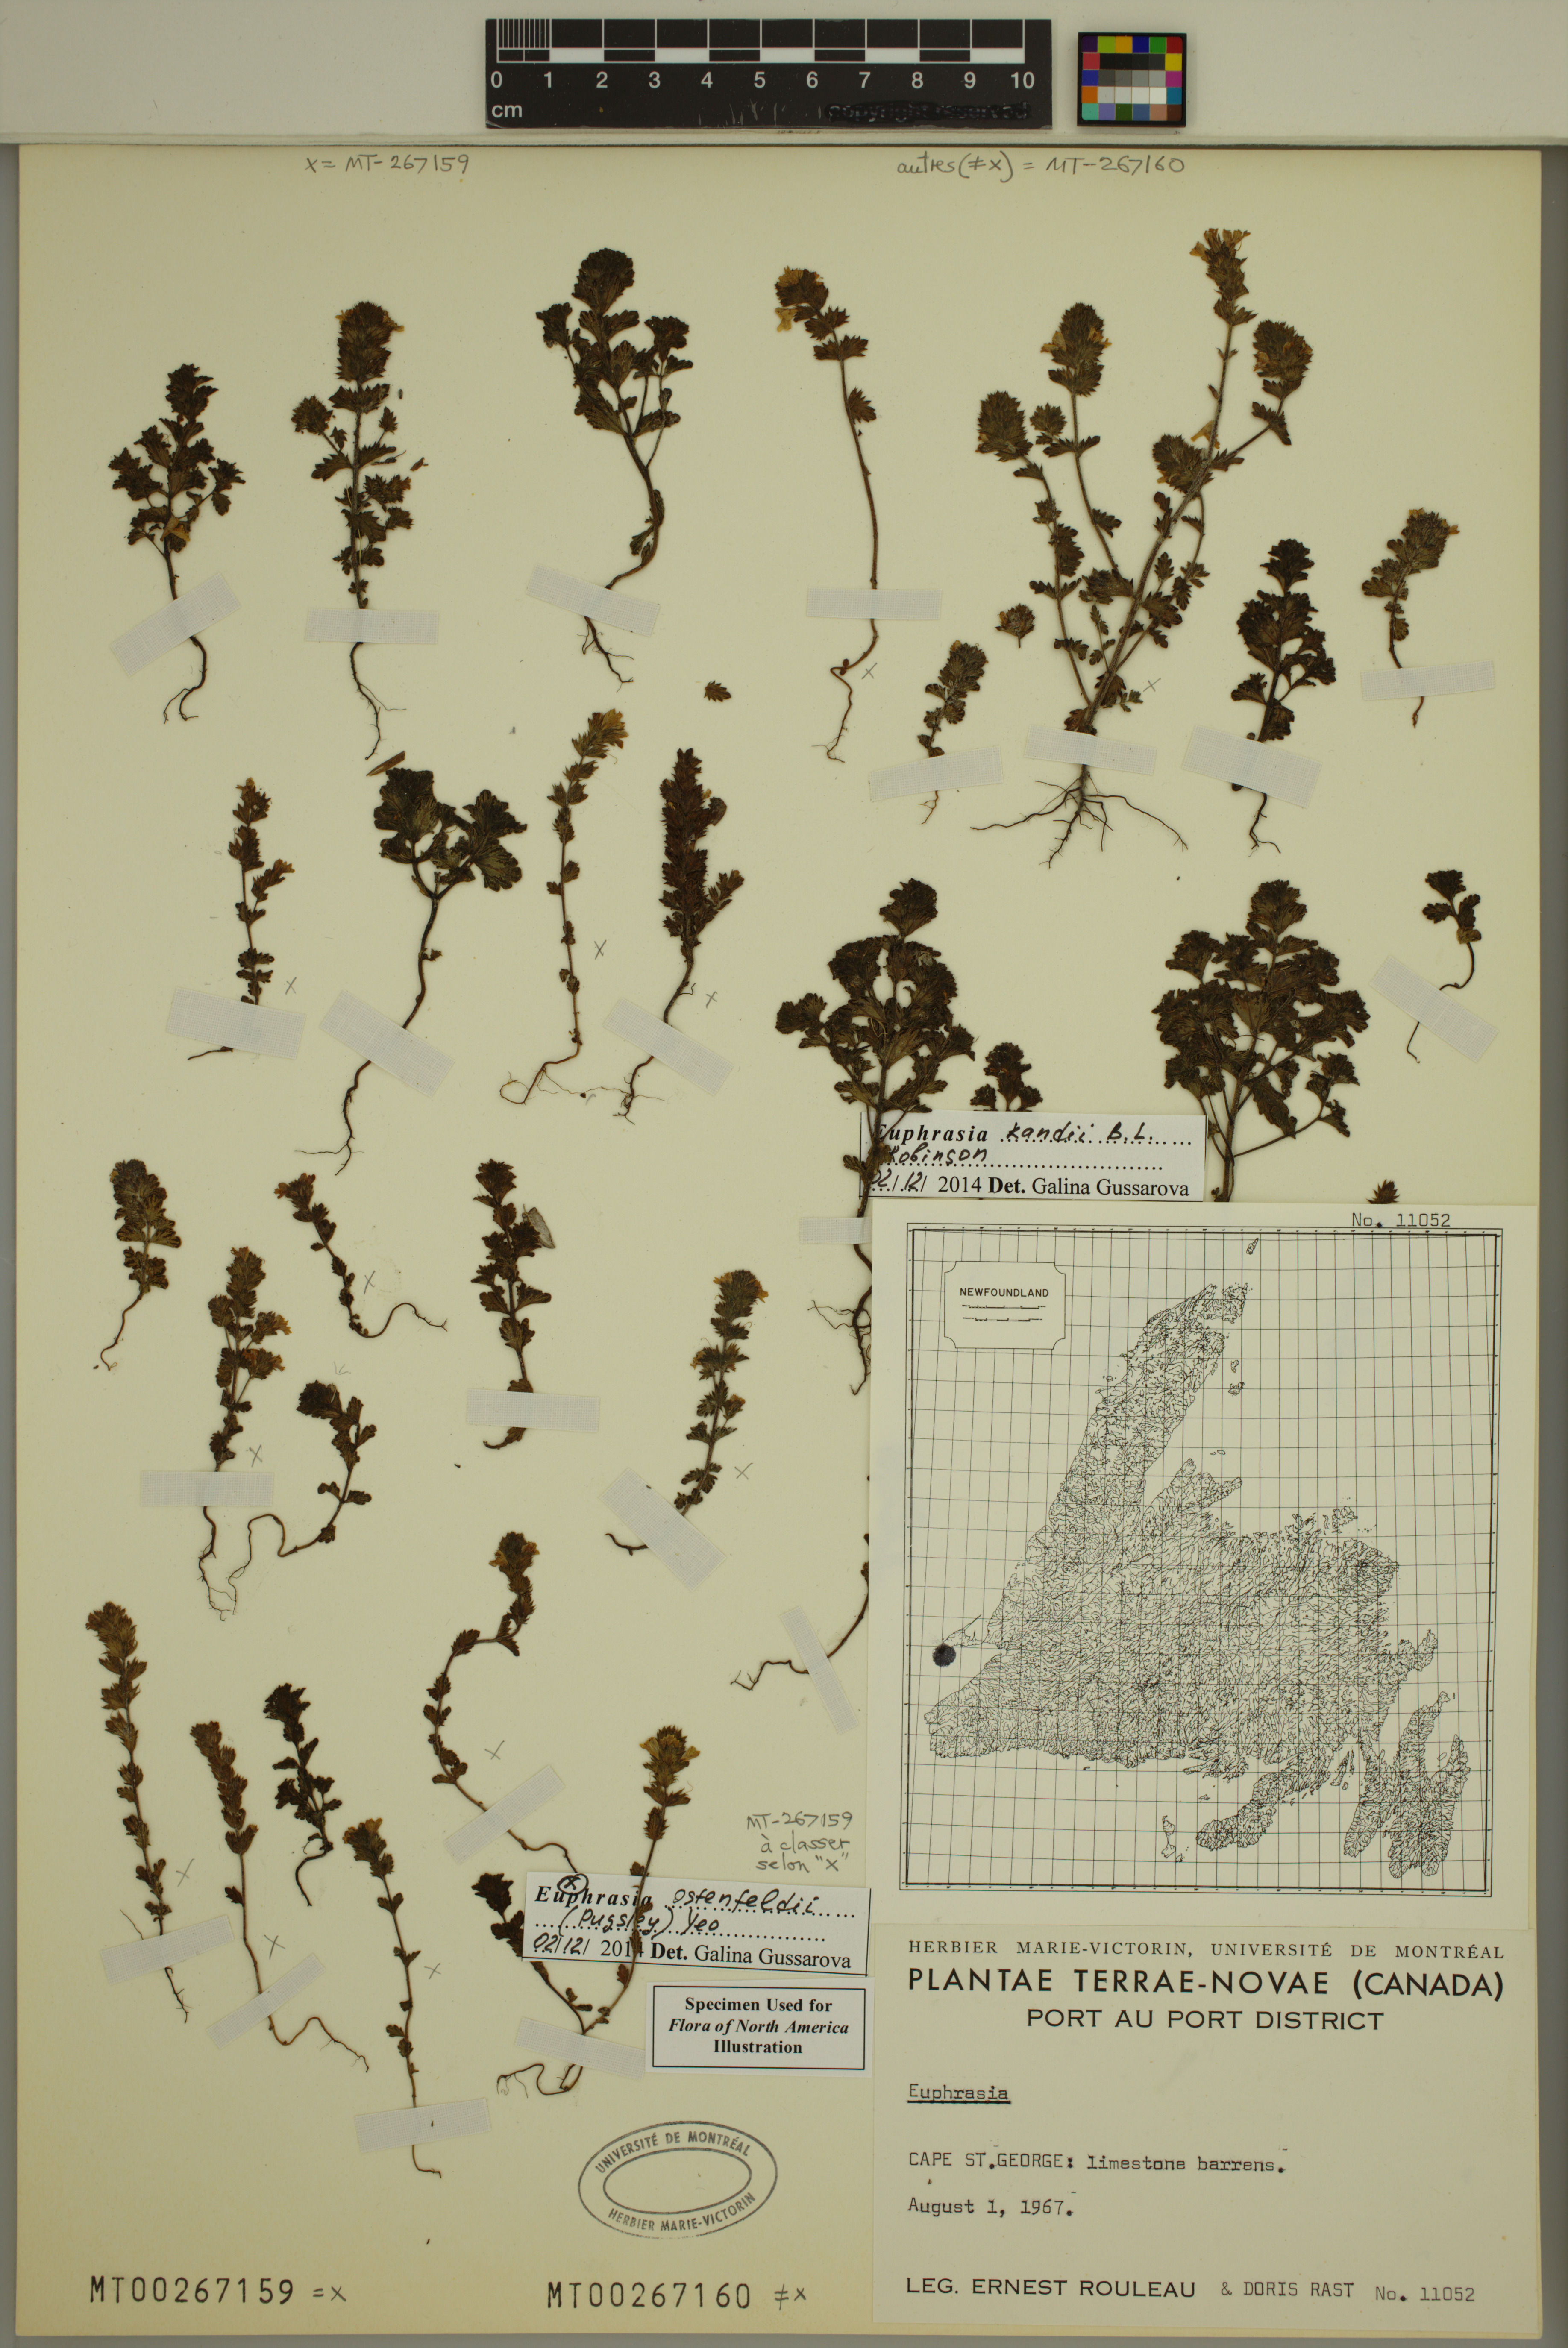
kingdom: Plantae
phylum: Tracheophyta
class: Magnoliopsida
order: Lamiales
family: Orobanchaceae
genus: Euphrasia
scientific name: Euphrasia randii
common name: Rand's eyebright
